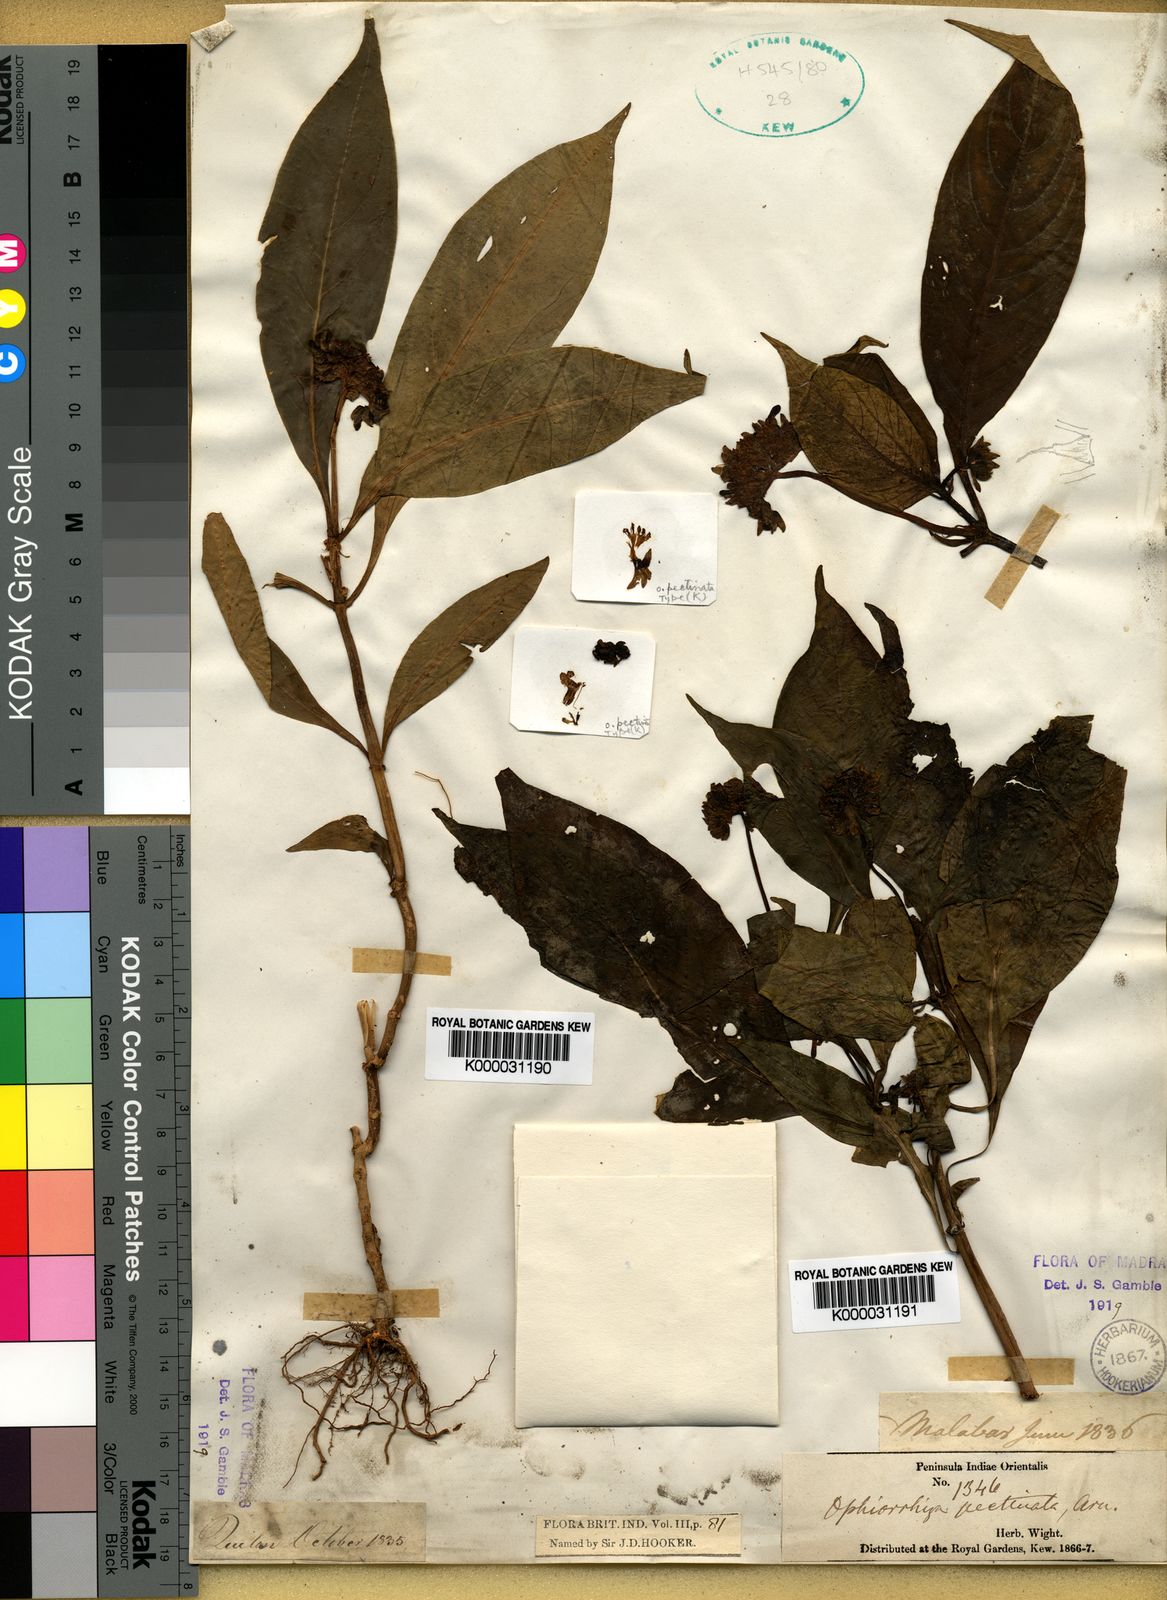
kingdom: Plantae
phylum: Tracheophyta
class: Magnoliopsida
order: Gentianales
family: Rubiaceae
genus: Ophiorrhiza
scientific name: Ophiorrhiza pectinata
